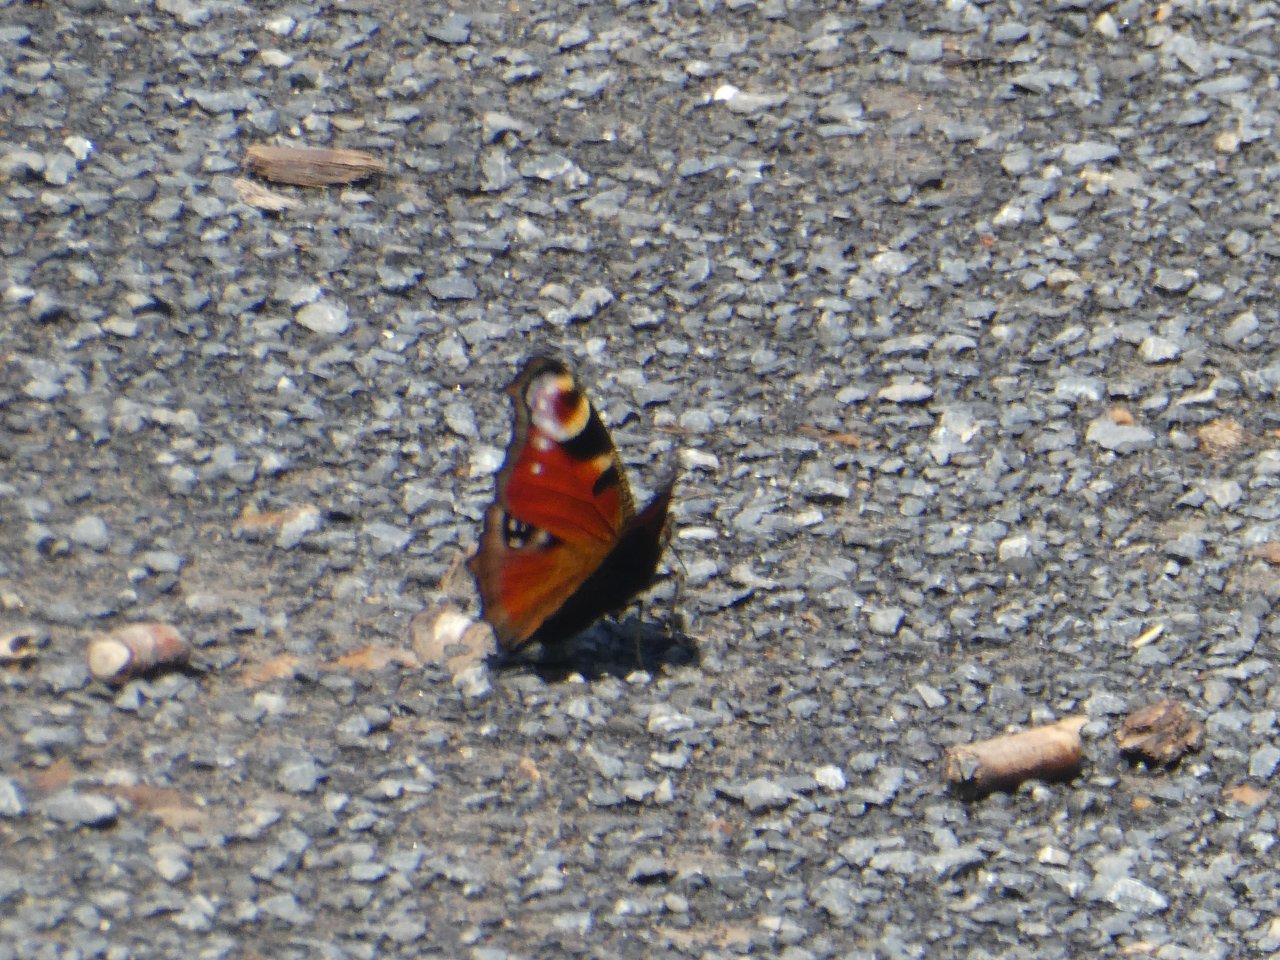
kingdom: Animalia
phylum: Arthropoda
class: Insecta
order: Lepidoptera
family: Nymphalidae
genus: Aglais
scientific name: Aglais io
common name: European Peacock
